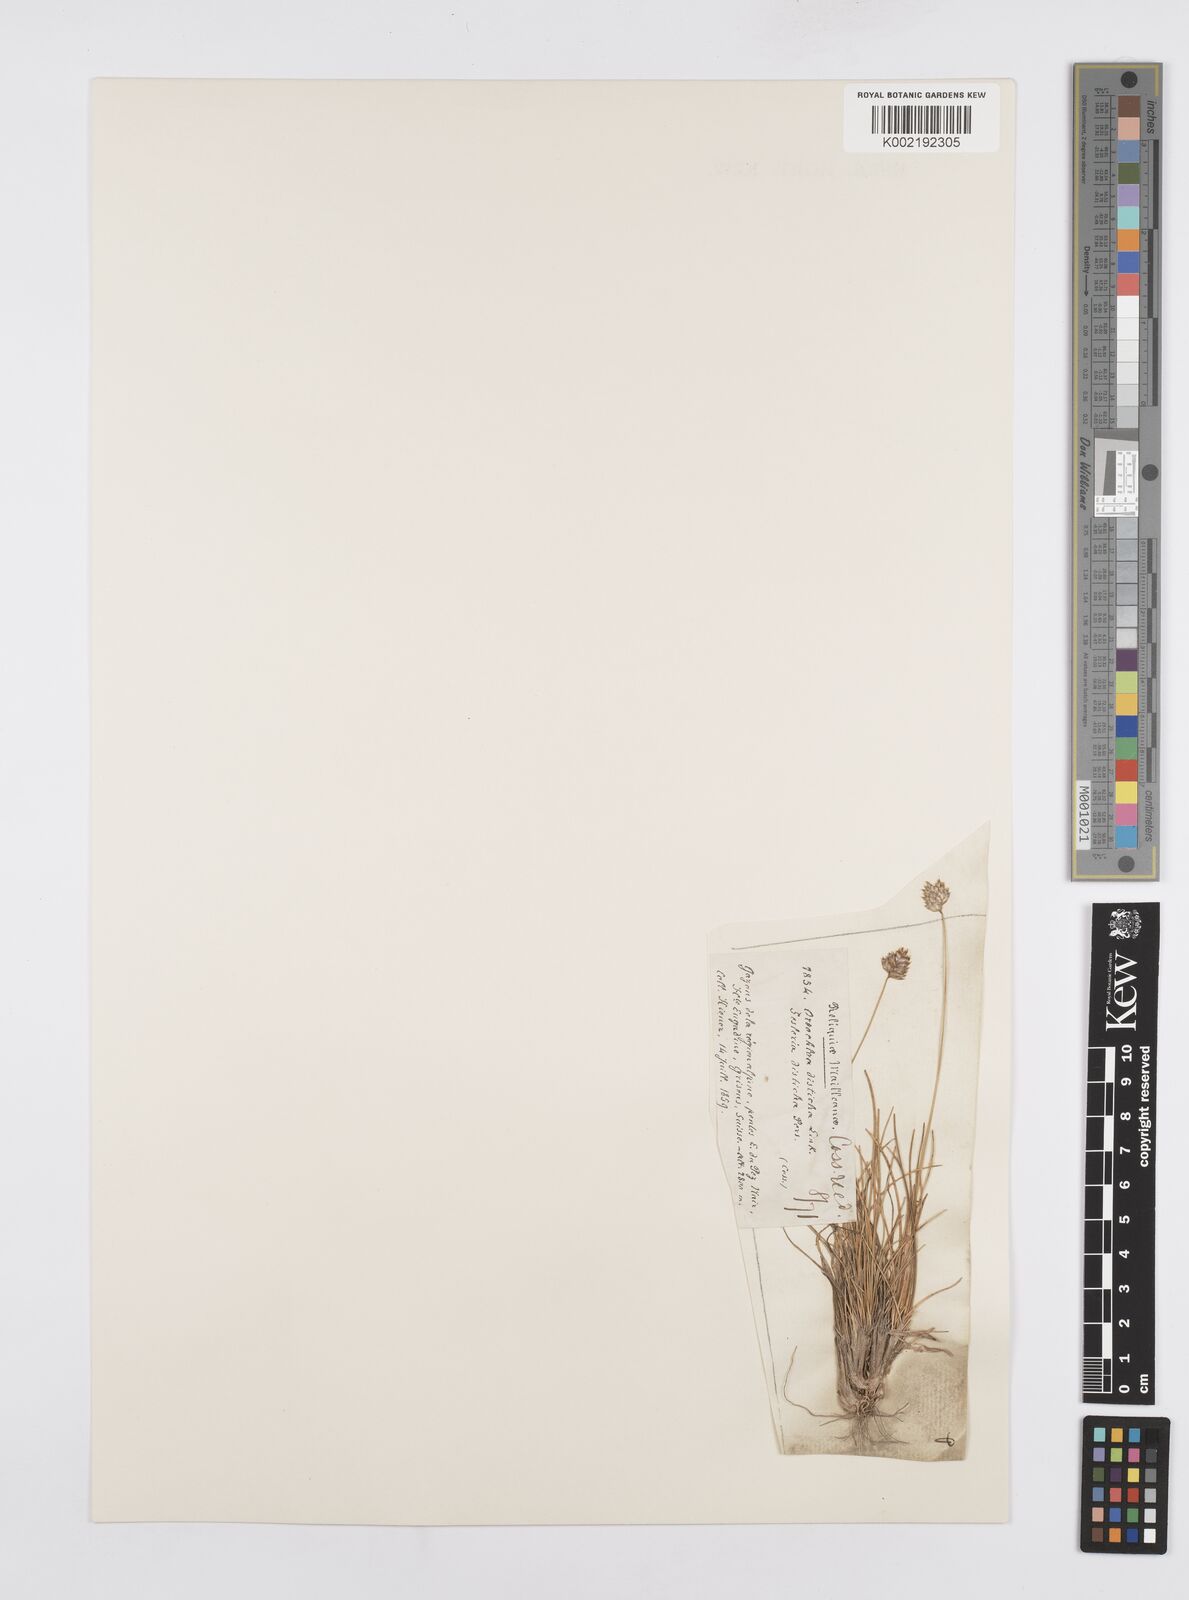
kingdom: Plantae
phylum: Tracheophyta
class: Liliopsida
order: Poales
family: Poaceae
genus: Oreochloa
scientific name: Oreochloa disticha
